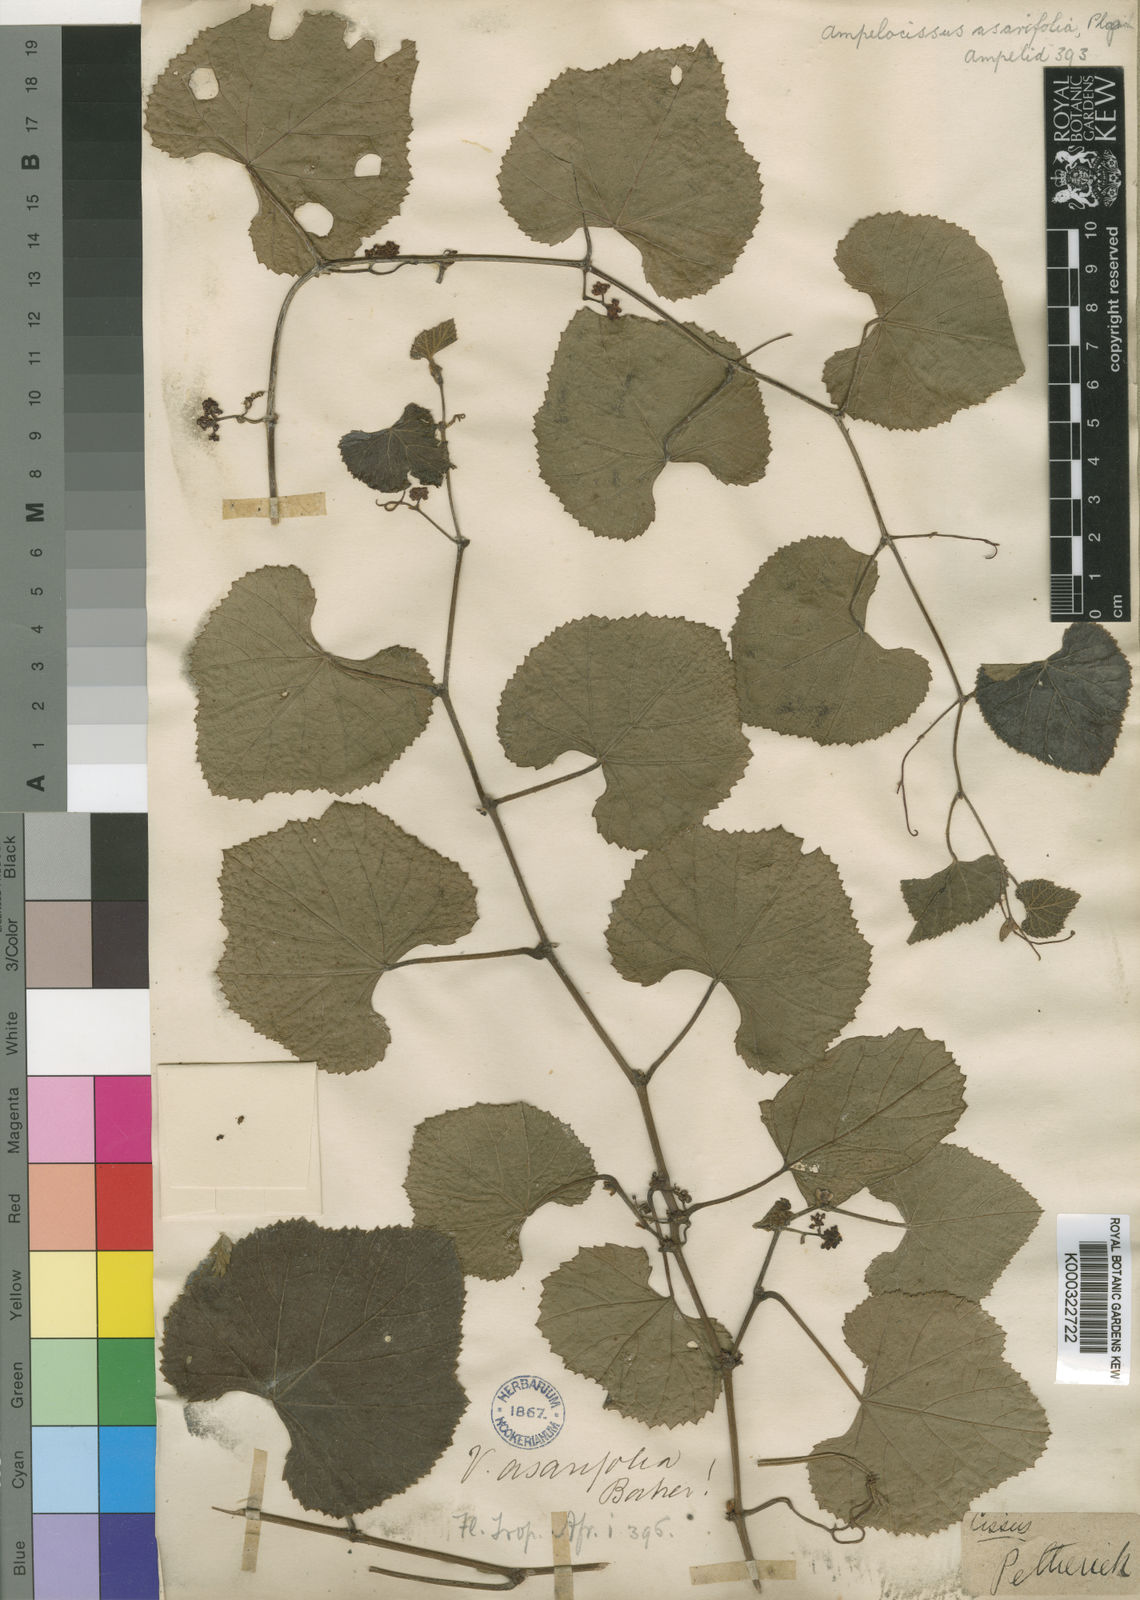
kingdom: Plantae
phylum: Tracheophyta
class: Magnoliopsida
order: Vitales
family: Vitaceae
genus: Ampelocissus
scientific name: Ampelocissus africana
